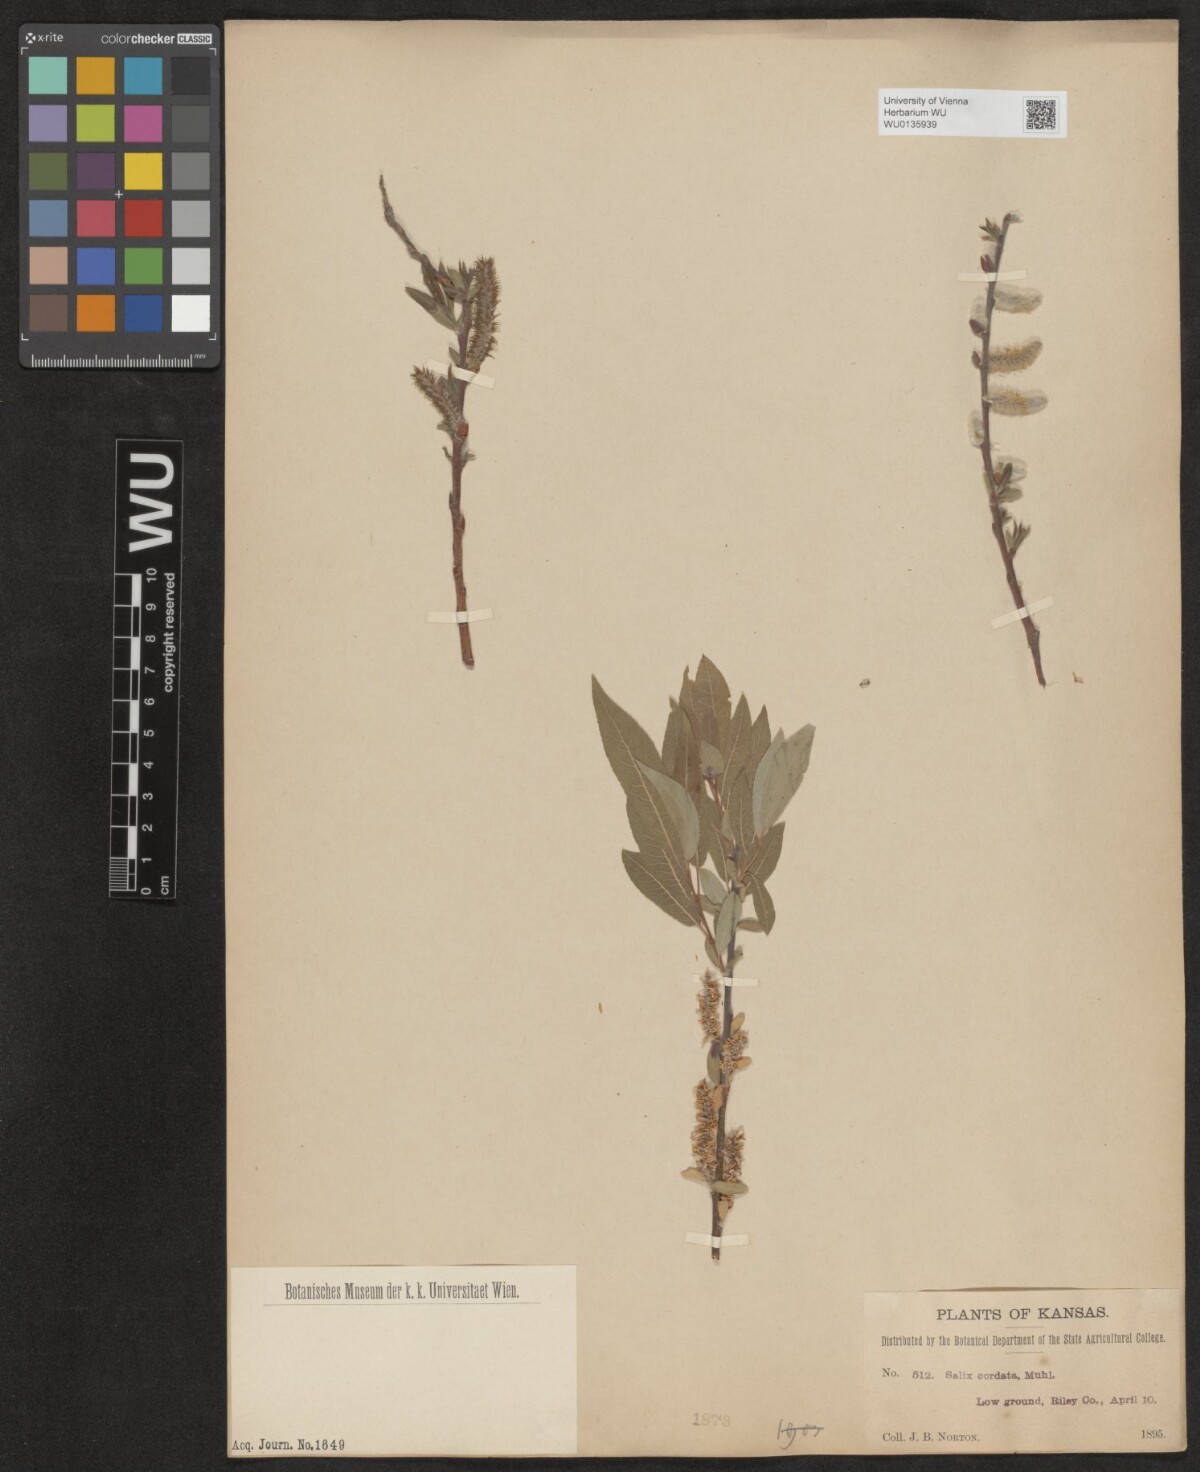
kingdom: Plantae
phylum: Tracheophyta
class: Magnoliopsida
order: Malpighiales
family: Salicaceae
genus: Salix
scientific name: Salix cordata
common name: Heart-leaf willow
